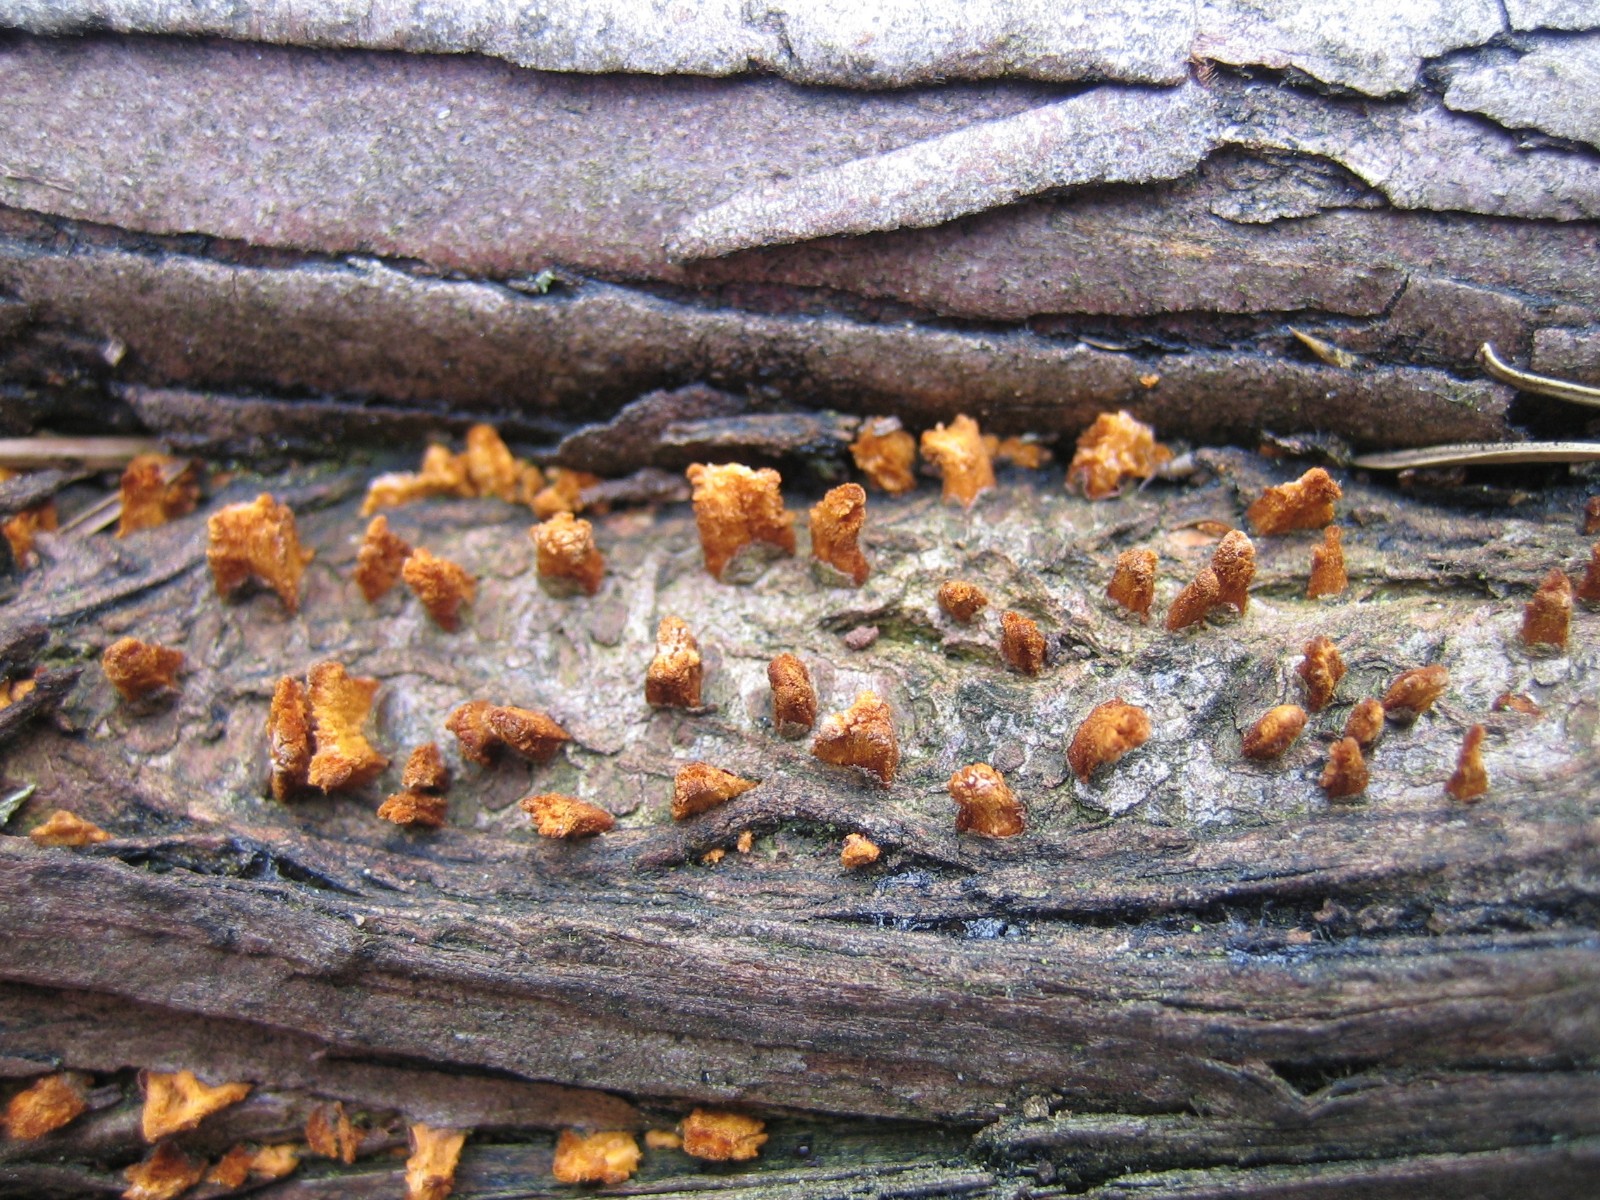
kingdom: Fungi
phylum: Basidiomycota
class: Pucciniomycetes
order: Pucciniales
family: Gymnosporangiaceae
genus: Gymnosporangium
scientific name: Gymnosporangium clavariiforme
